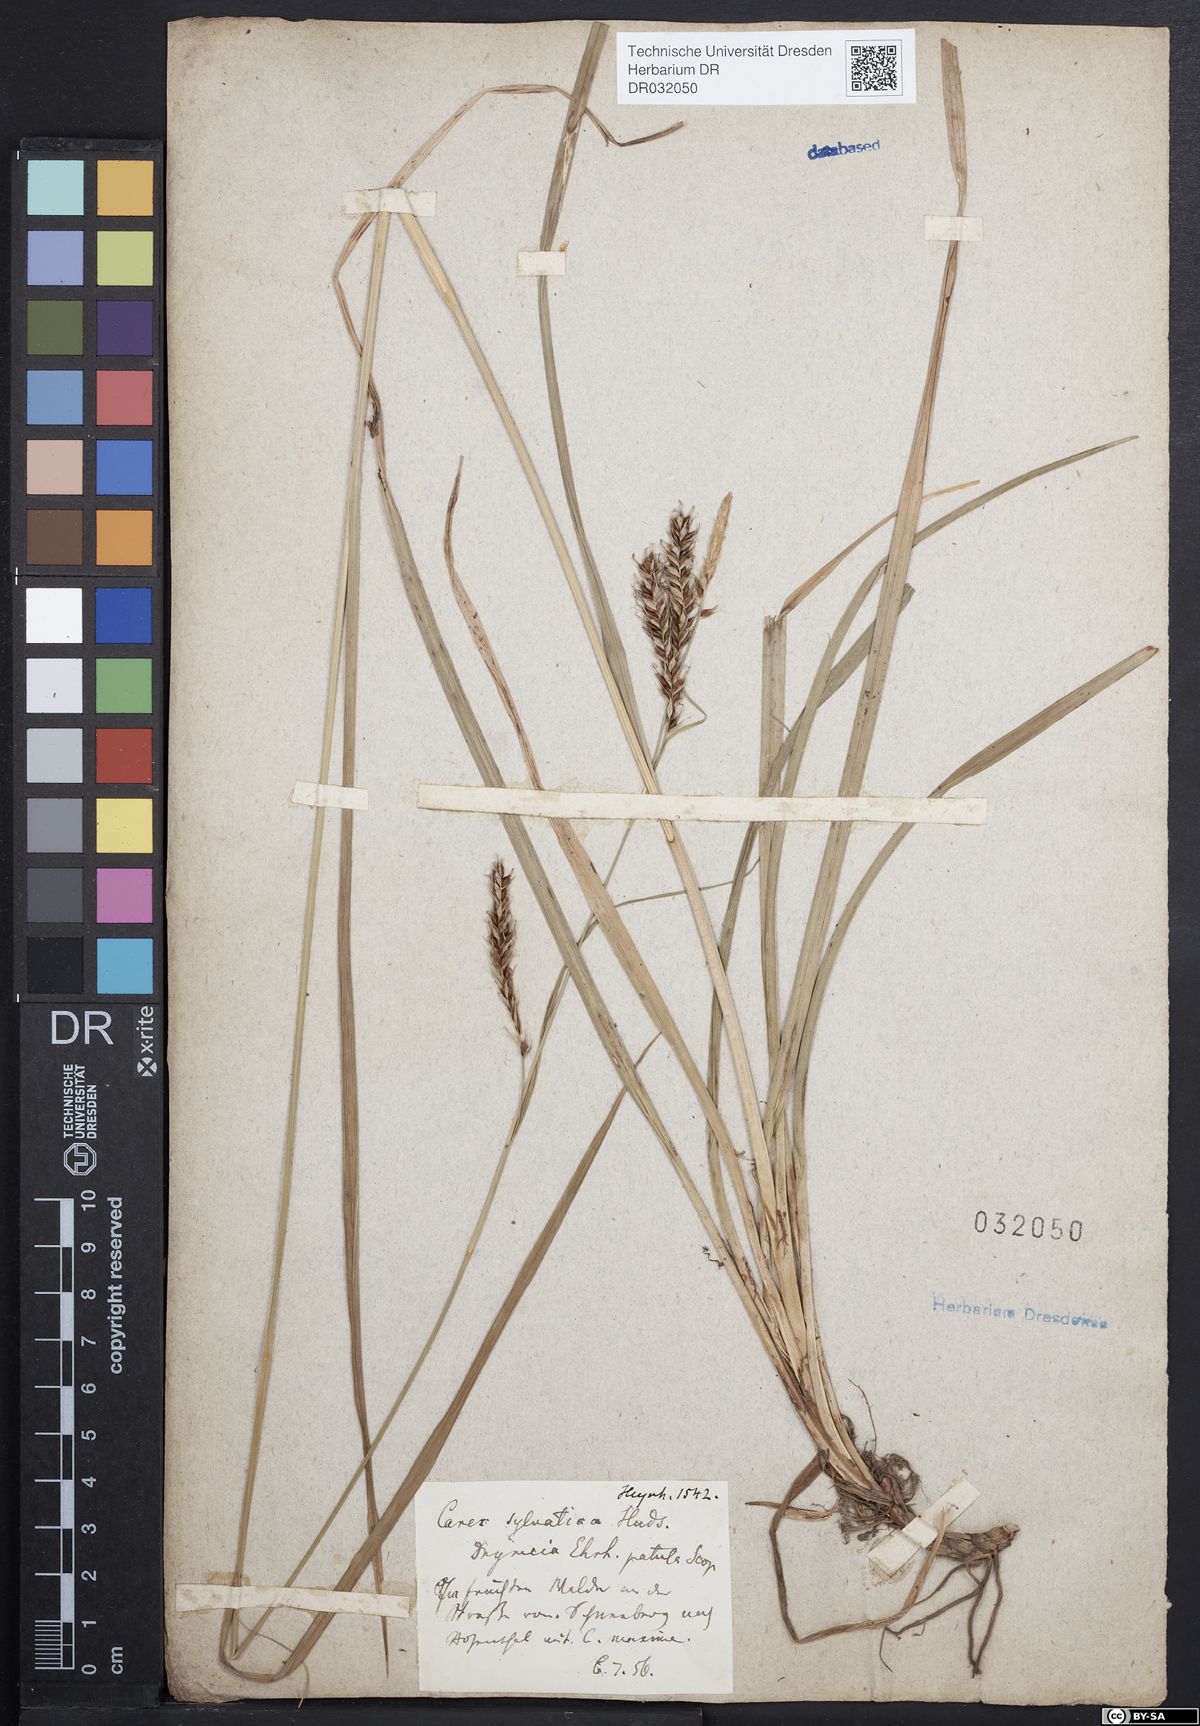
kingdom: Plantae
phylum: Tracheophyta
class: Liliopsida
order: Poales
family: Cyperaceae
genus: Carex
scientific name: Carex sylvatica
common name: Wood-sedge
